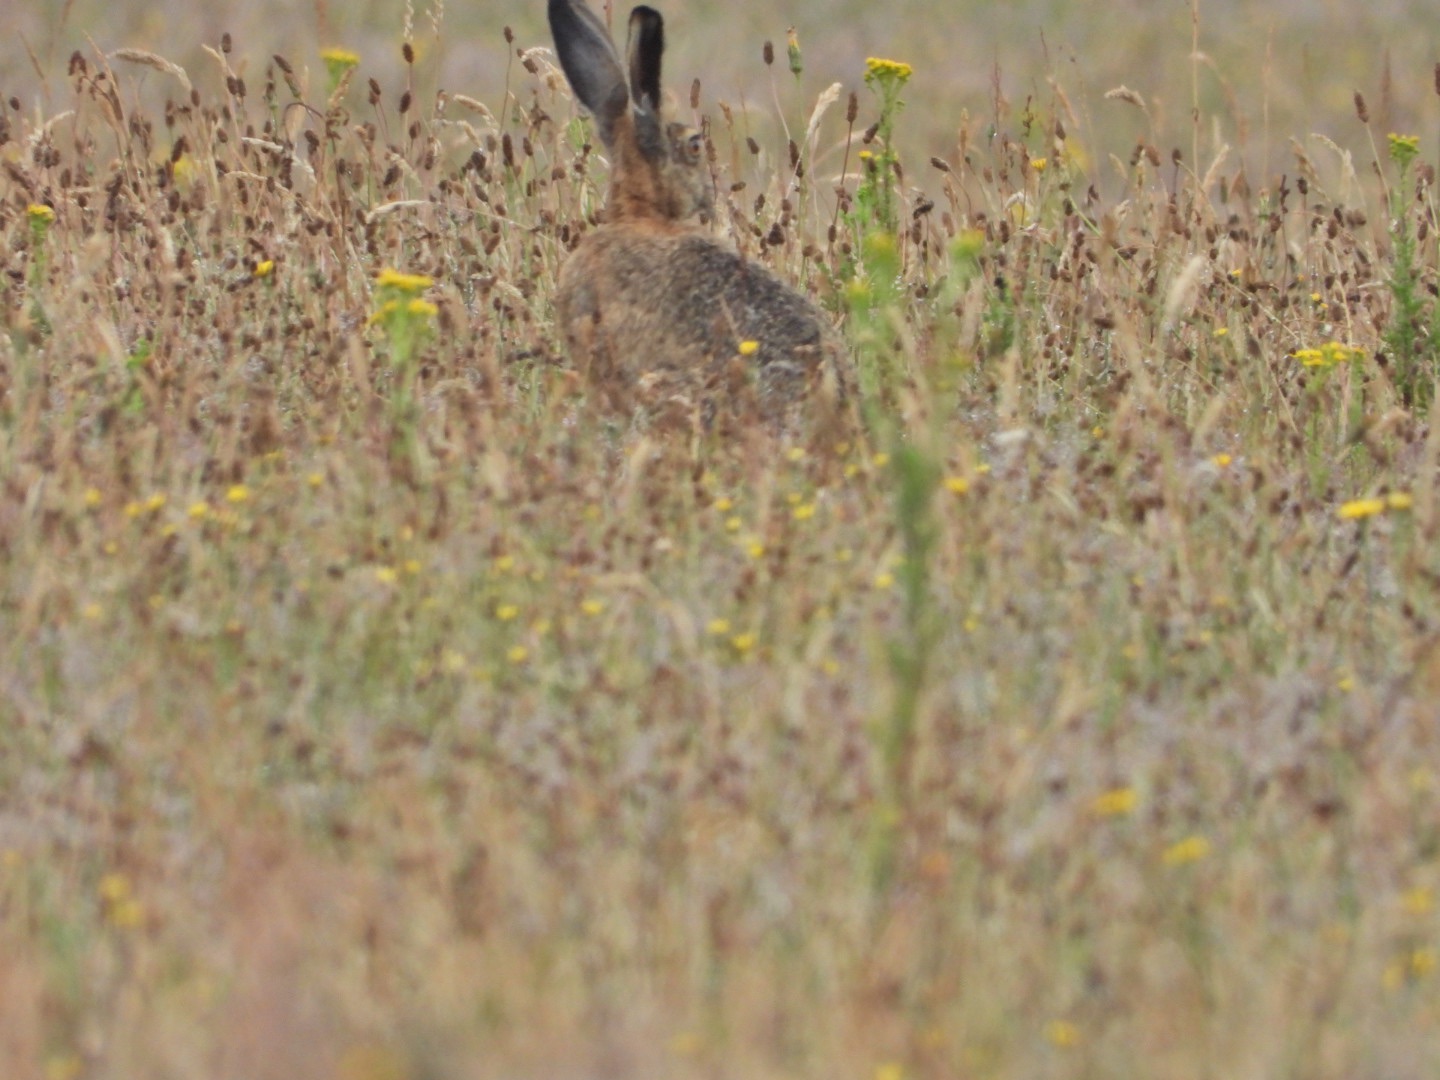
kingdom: Animalia
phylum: Chordata
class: Mammalia
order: Lagomorpha
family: Leporidae
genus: Lepus
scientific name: Lepus europaeus
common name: Hare
